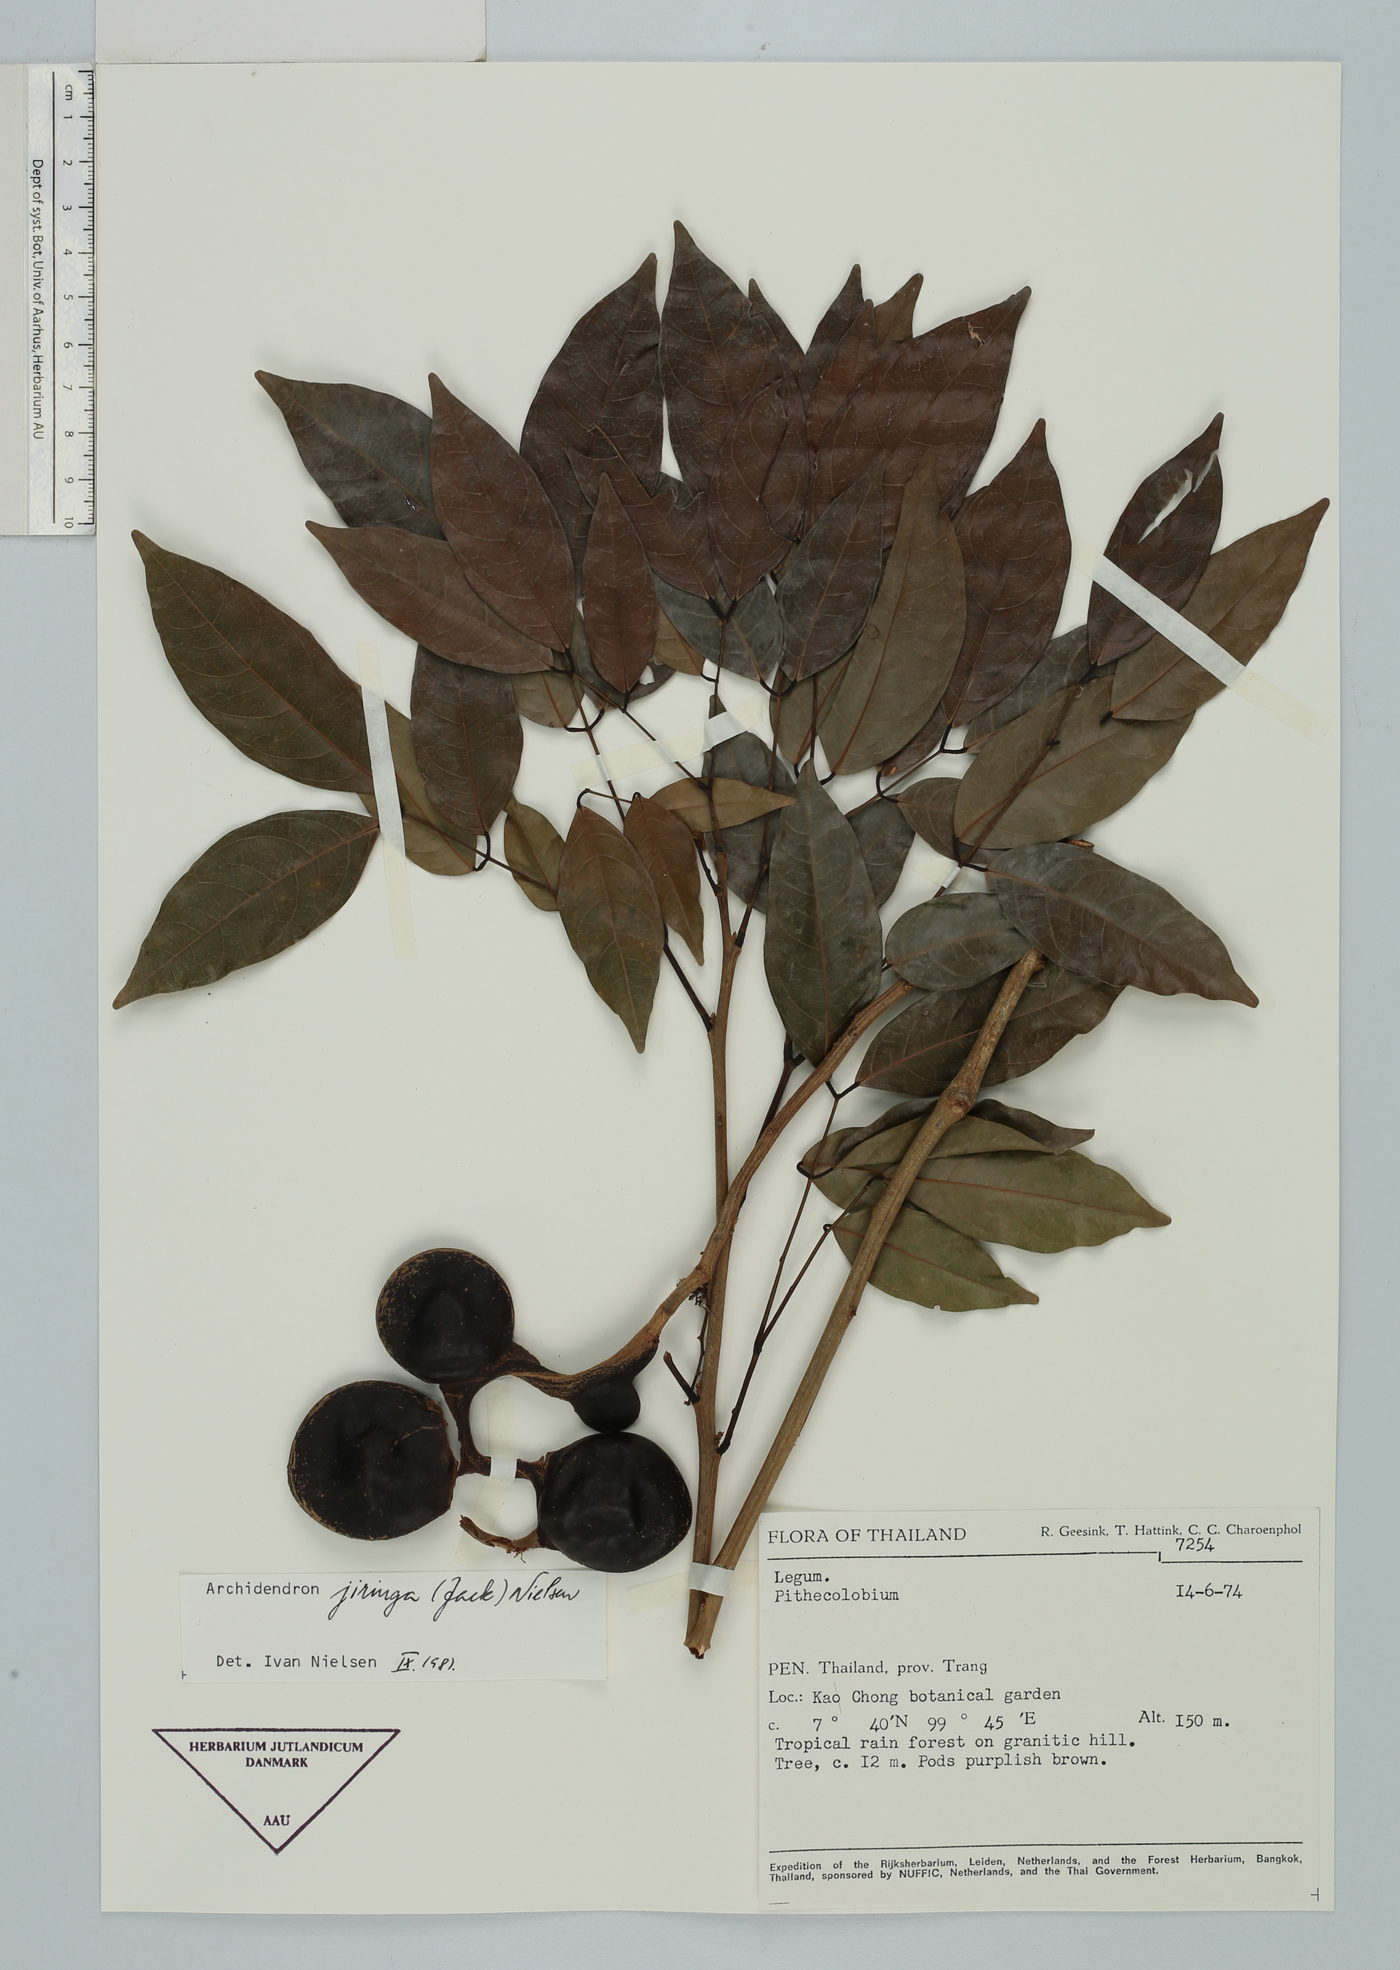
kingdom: Plantae
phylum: Tracheophyta
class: Magnoliopsida
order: Fabales
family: Fabaceae
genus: Archidendron
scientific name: Archidendron jiringa
